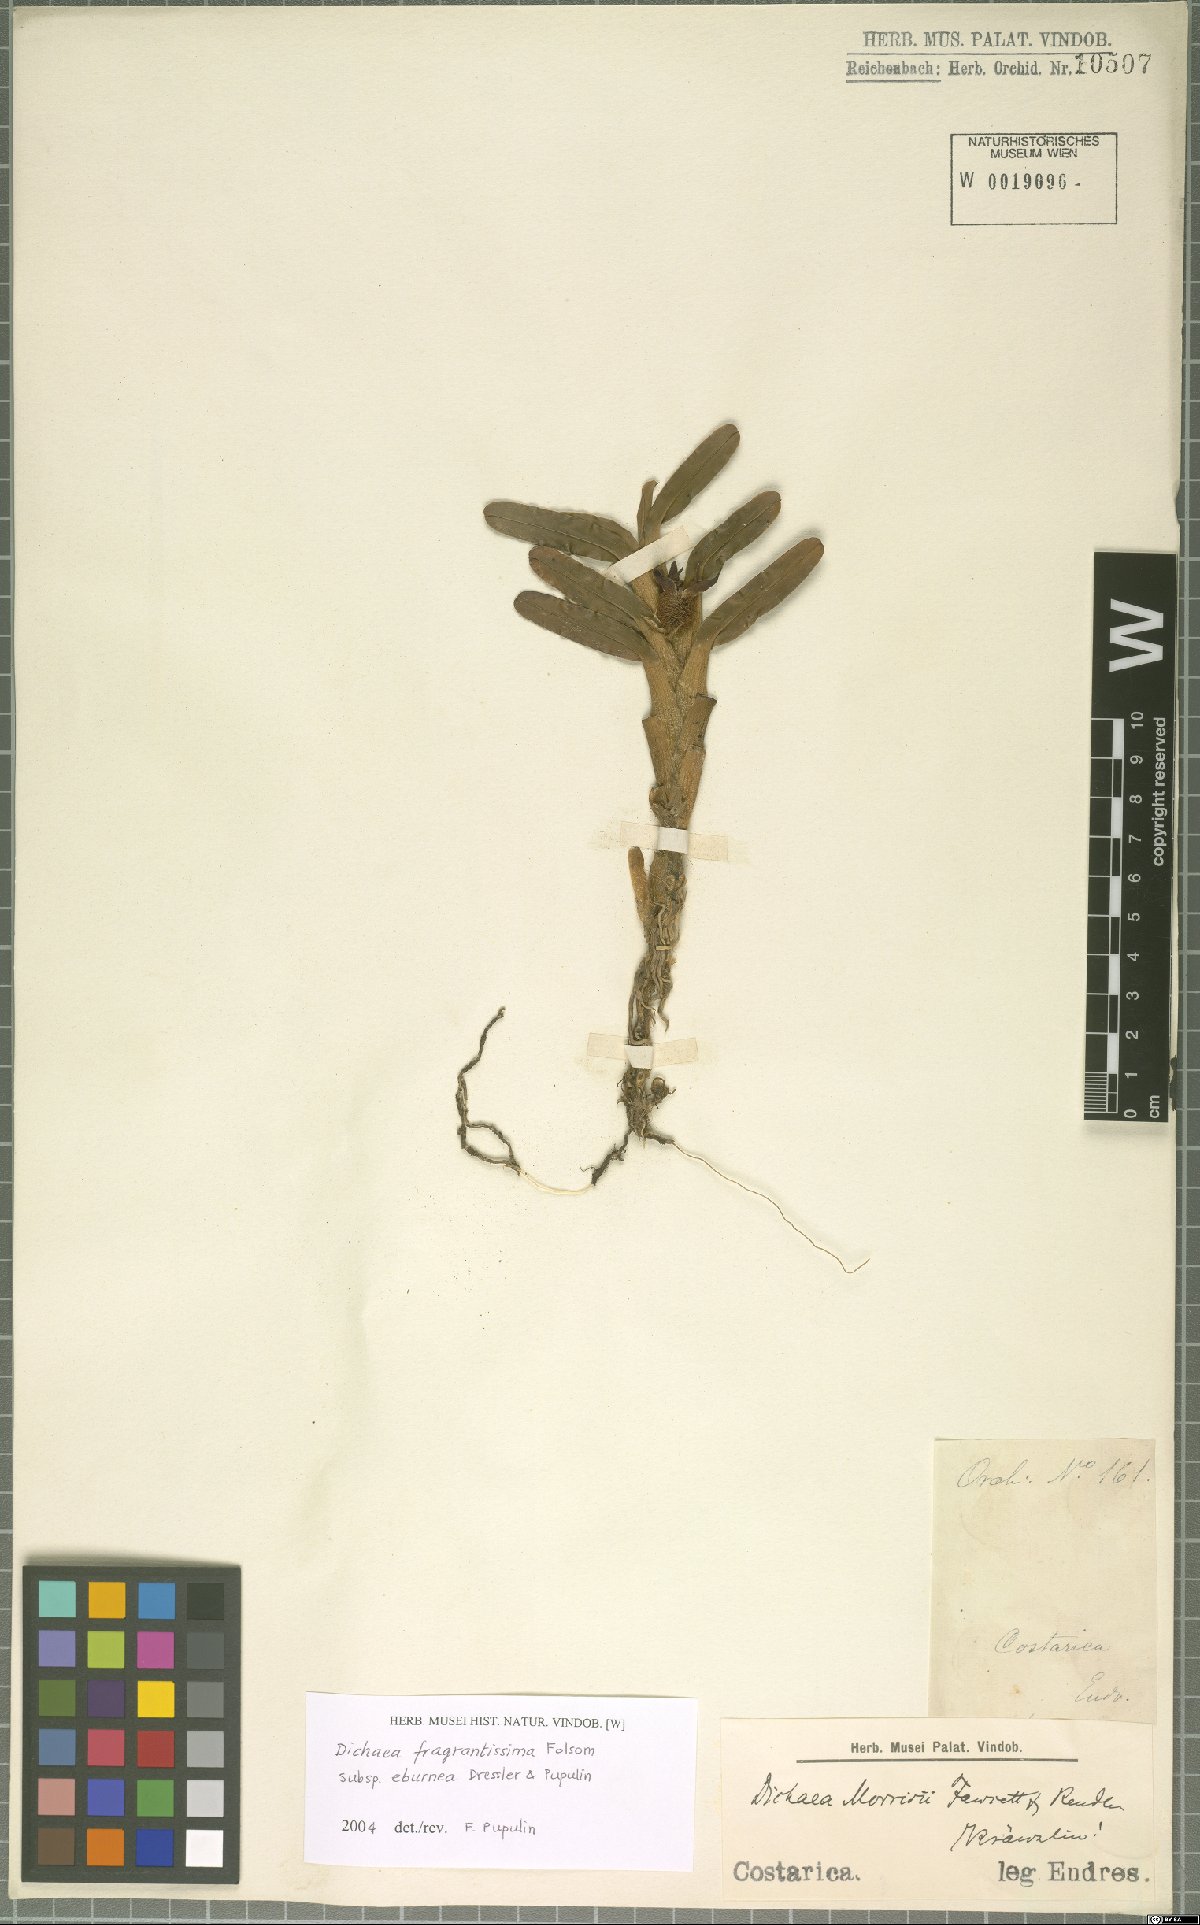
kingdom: Plantae
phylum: Tracheophyta
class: Liliopsida
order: Asparagales
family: Orchidaceae
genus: Dichaea
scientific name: Dichaea eburnea
